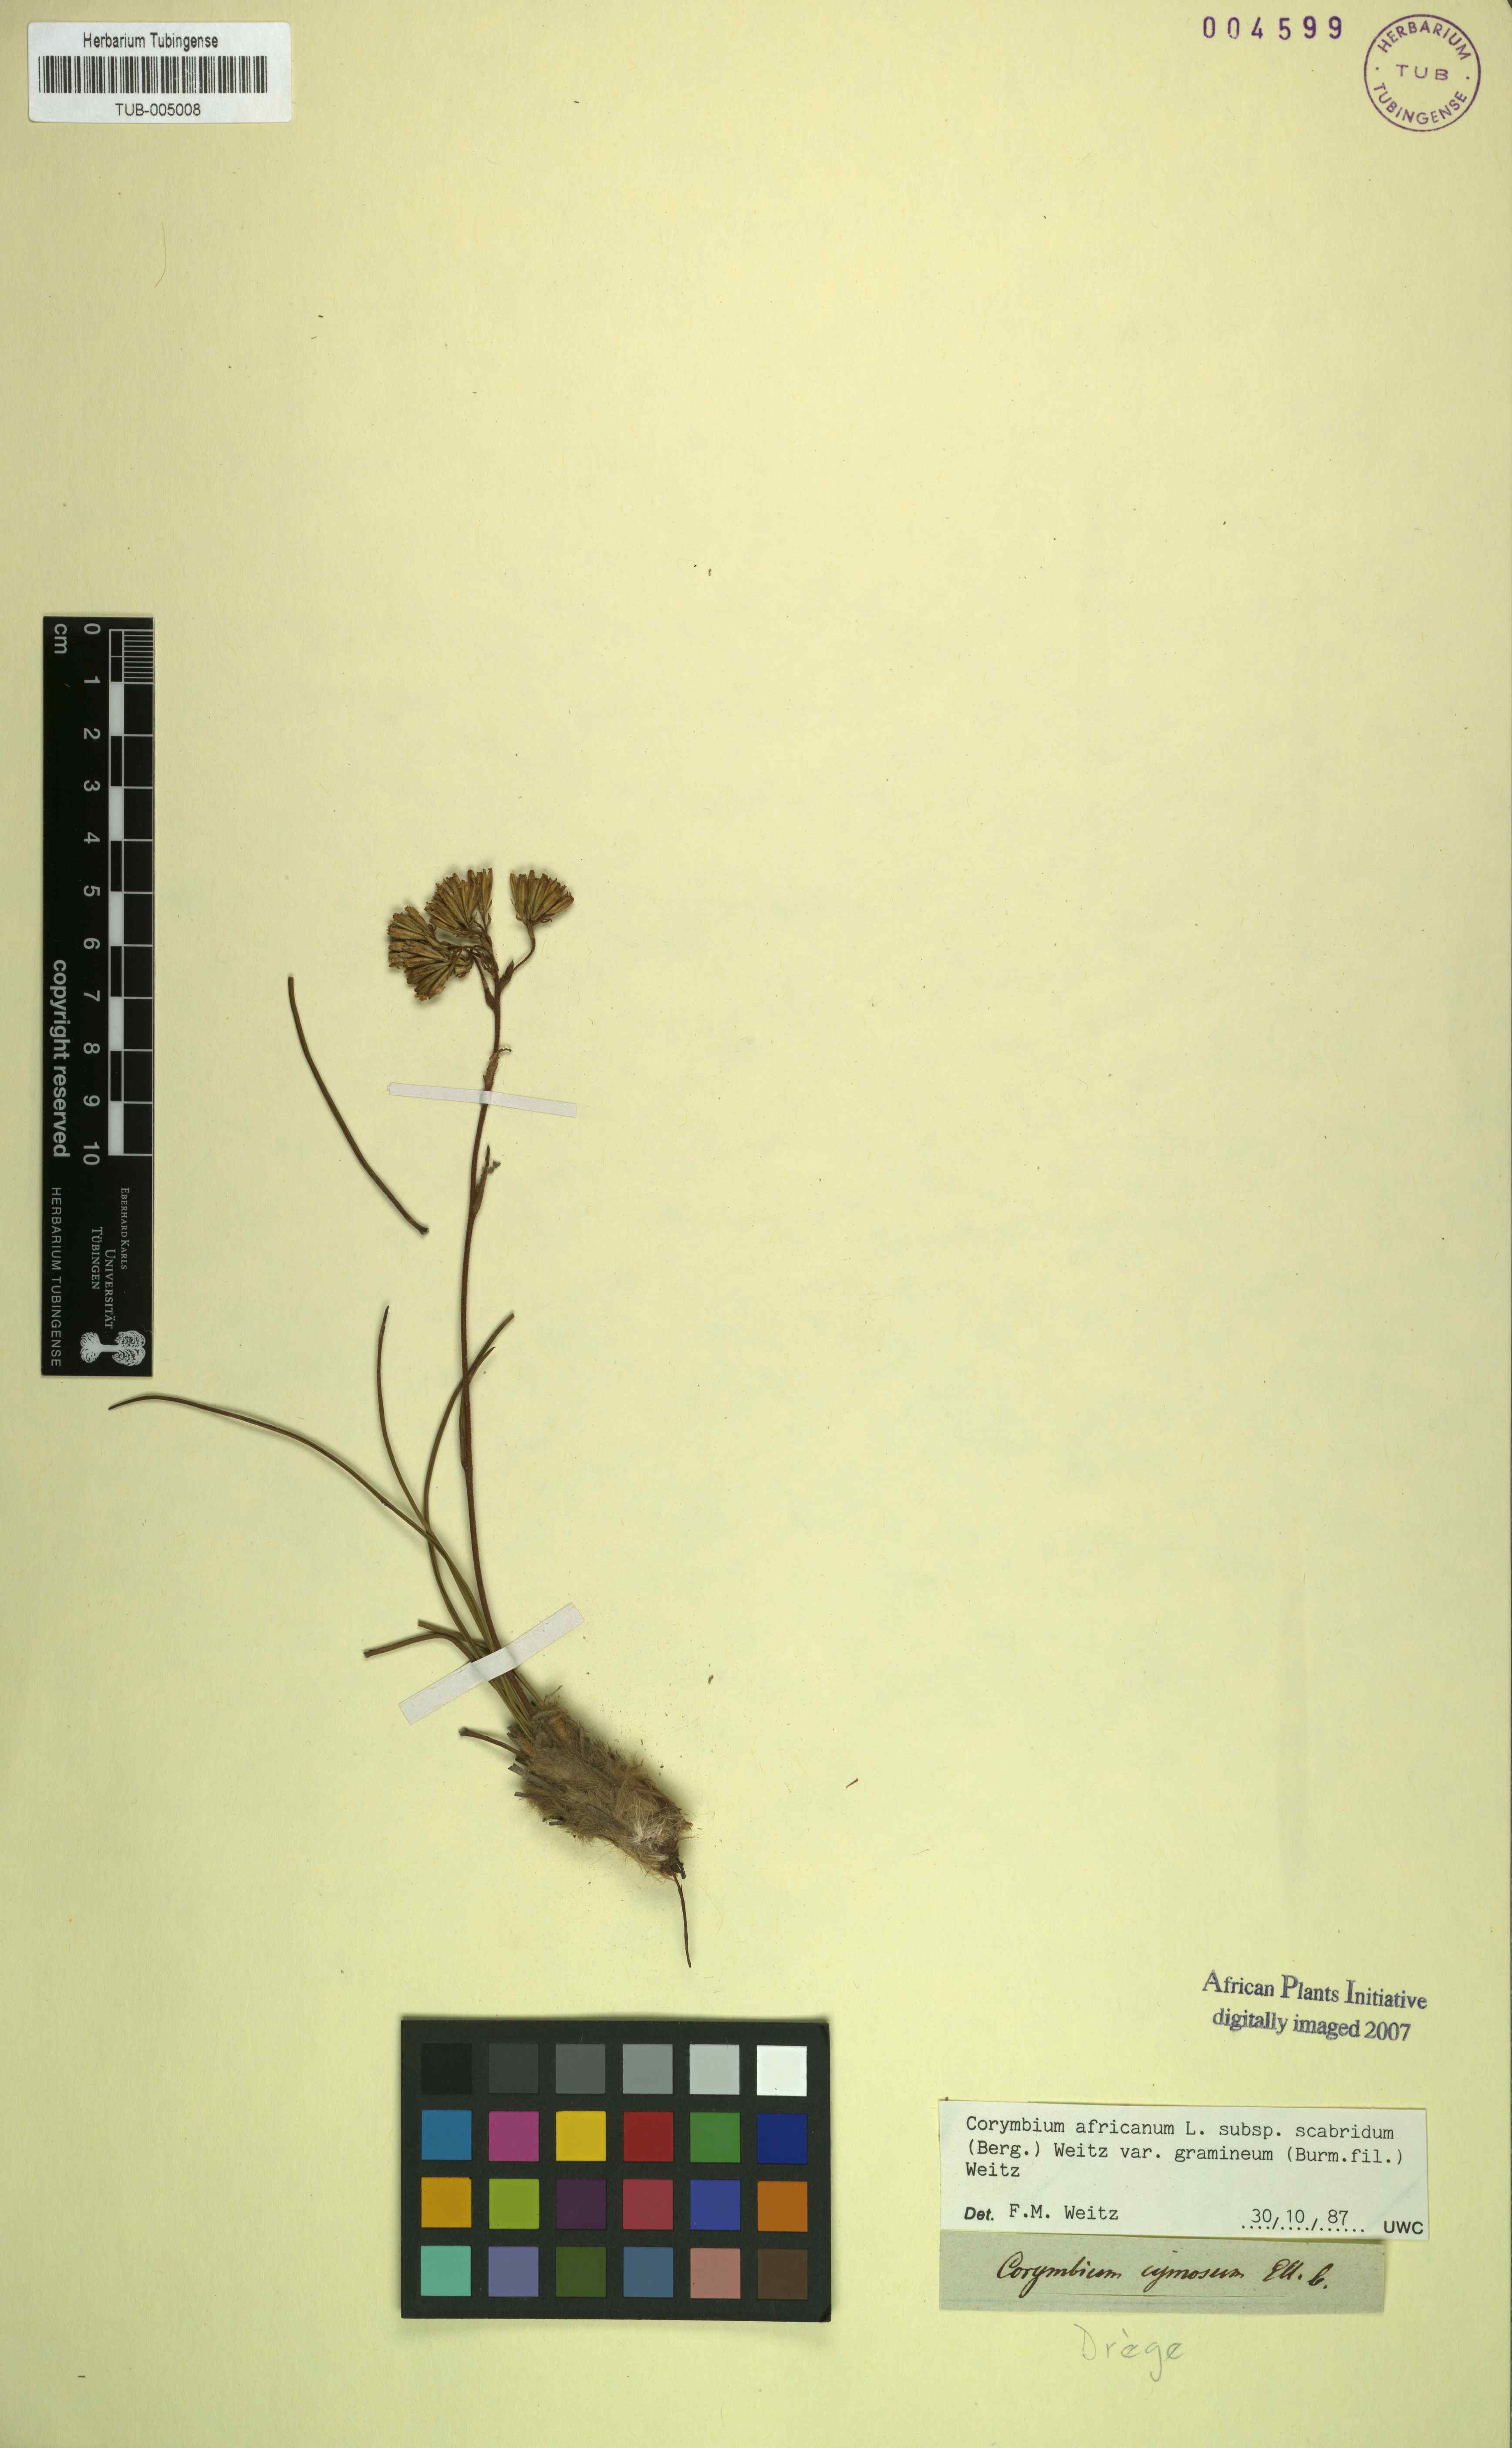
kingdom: Plantae
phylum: Tracheophyta
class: Magnoliopsida
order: Asterales
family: Asteraceae
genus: Corymbium
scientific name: Corymbium africanum
